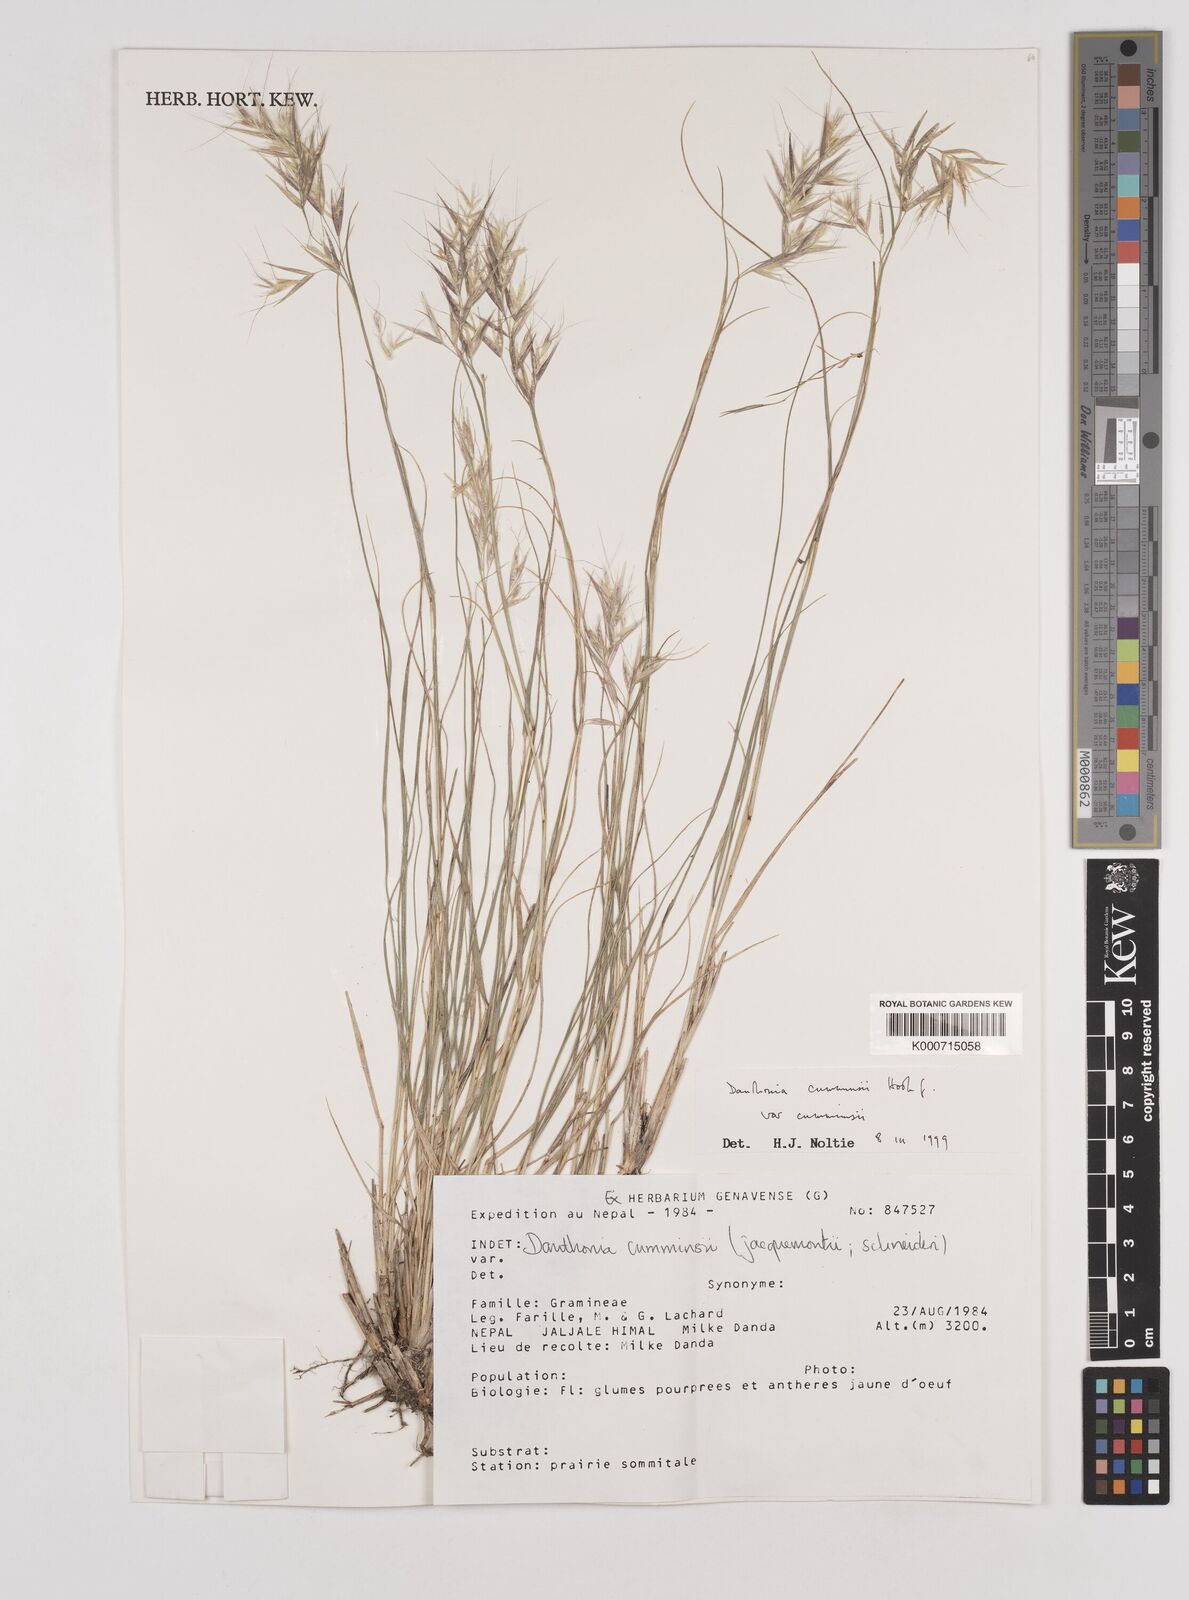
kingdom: Plantae
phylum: Tracheophyta
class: Liliopsida
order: Poales
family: Poaceae
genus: Rytidosperma
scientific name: Rytidosperma
